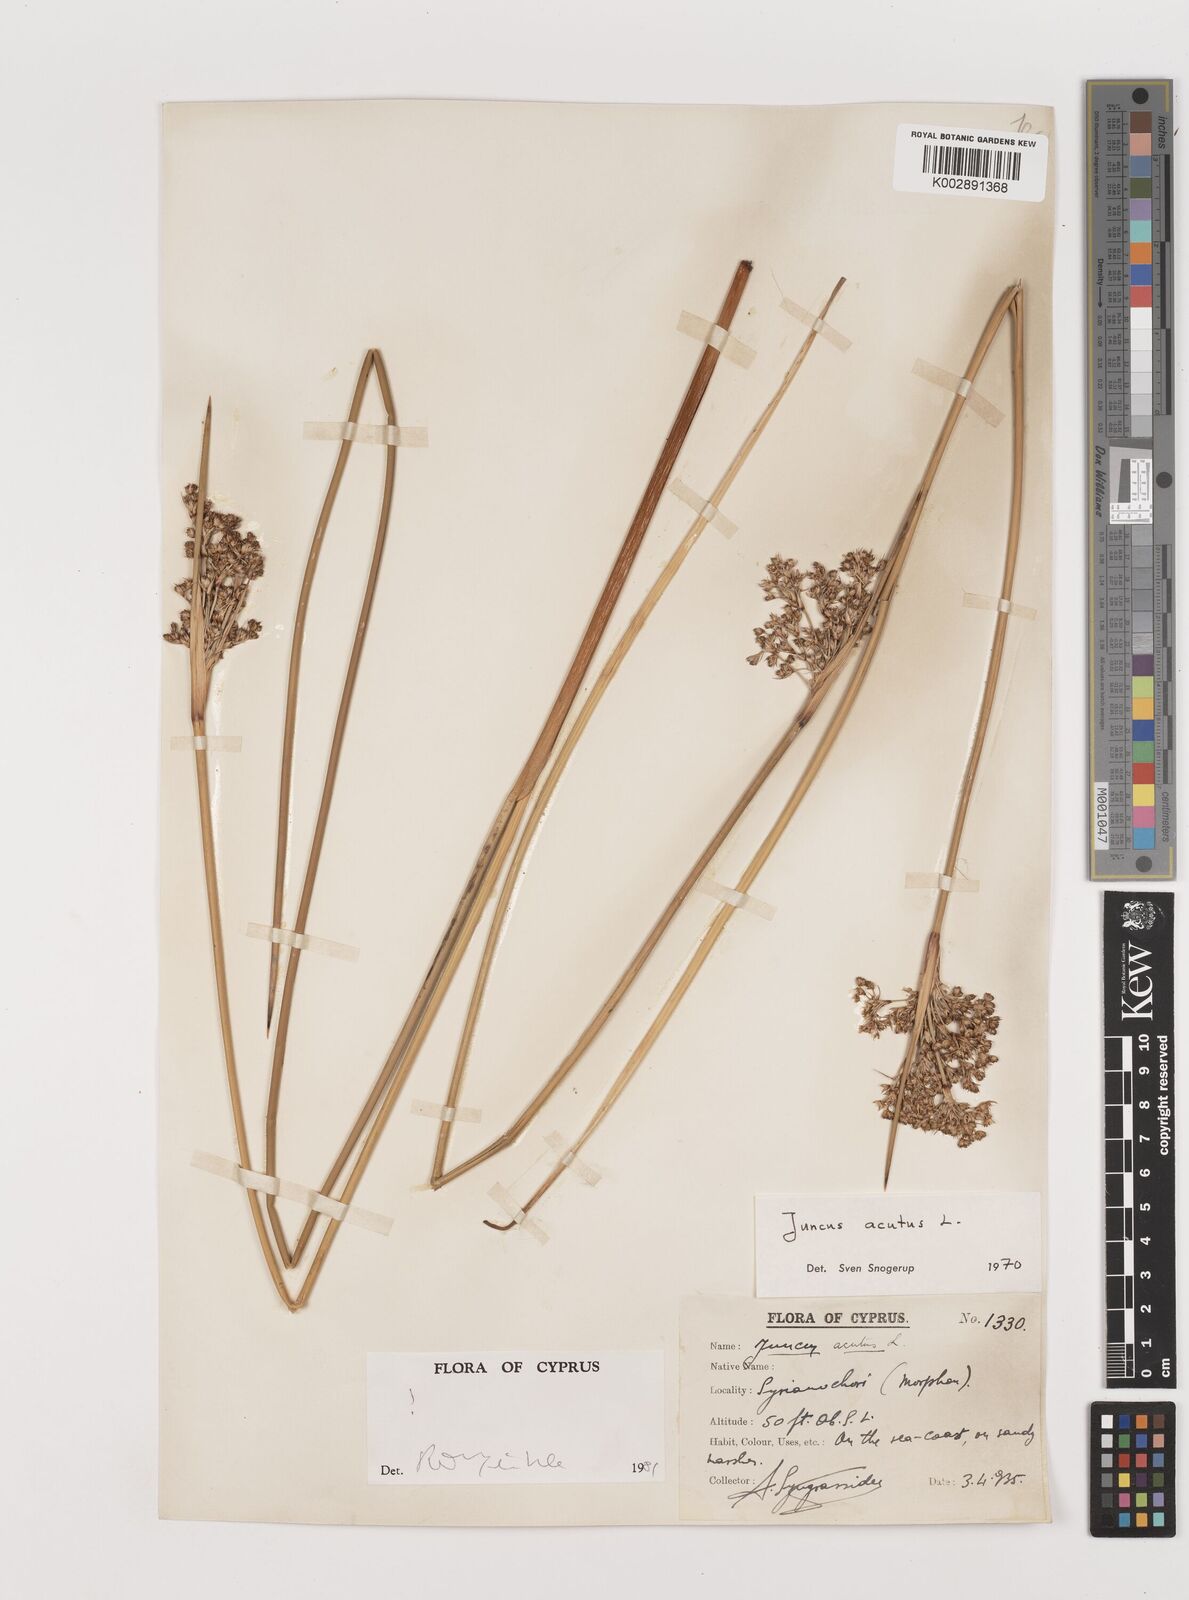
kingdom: Plantae
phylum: Tracheophyta
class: Liliopsida
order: Poales
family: Juncaceae
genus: Juncus
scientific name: Juncus acutus
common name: Sharp rush
